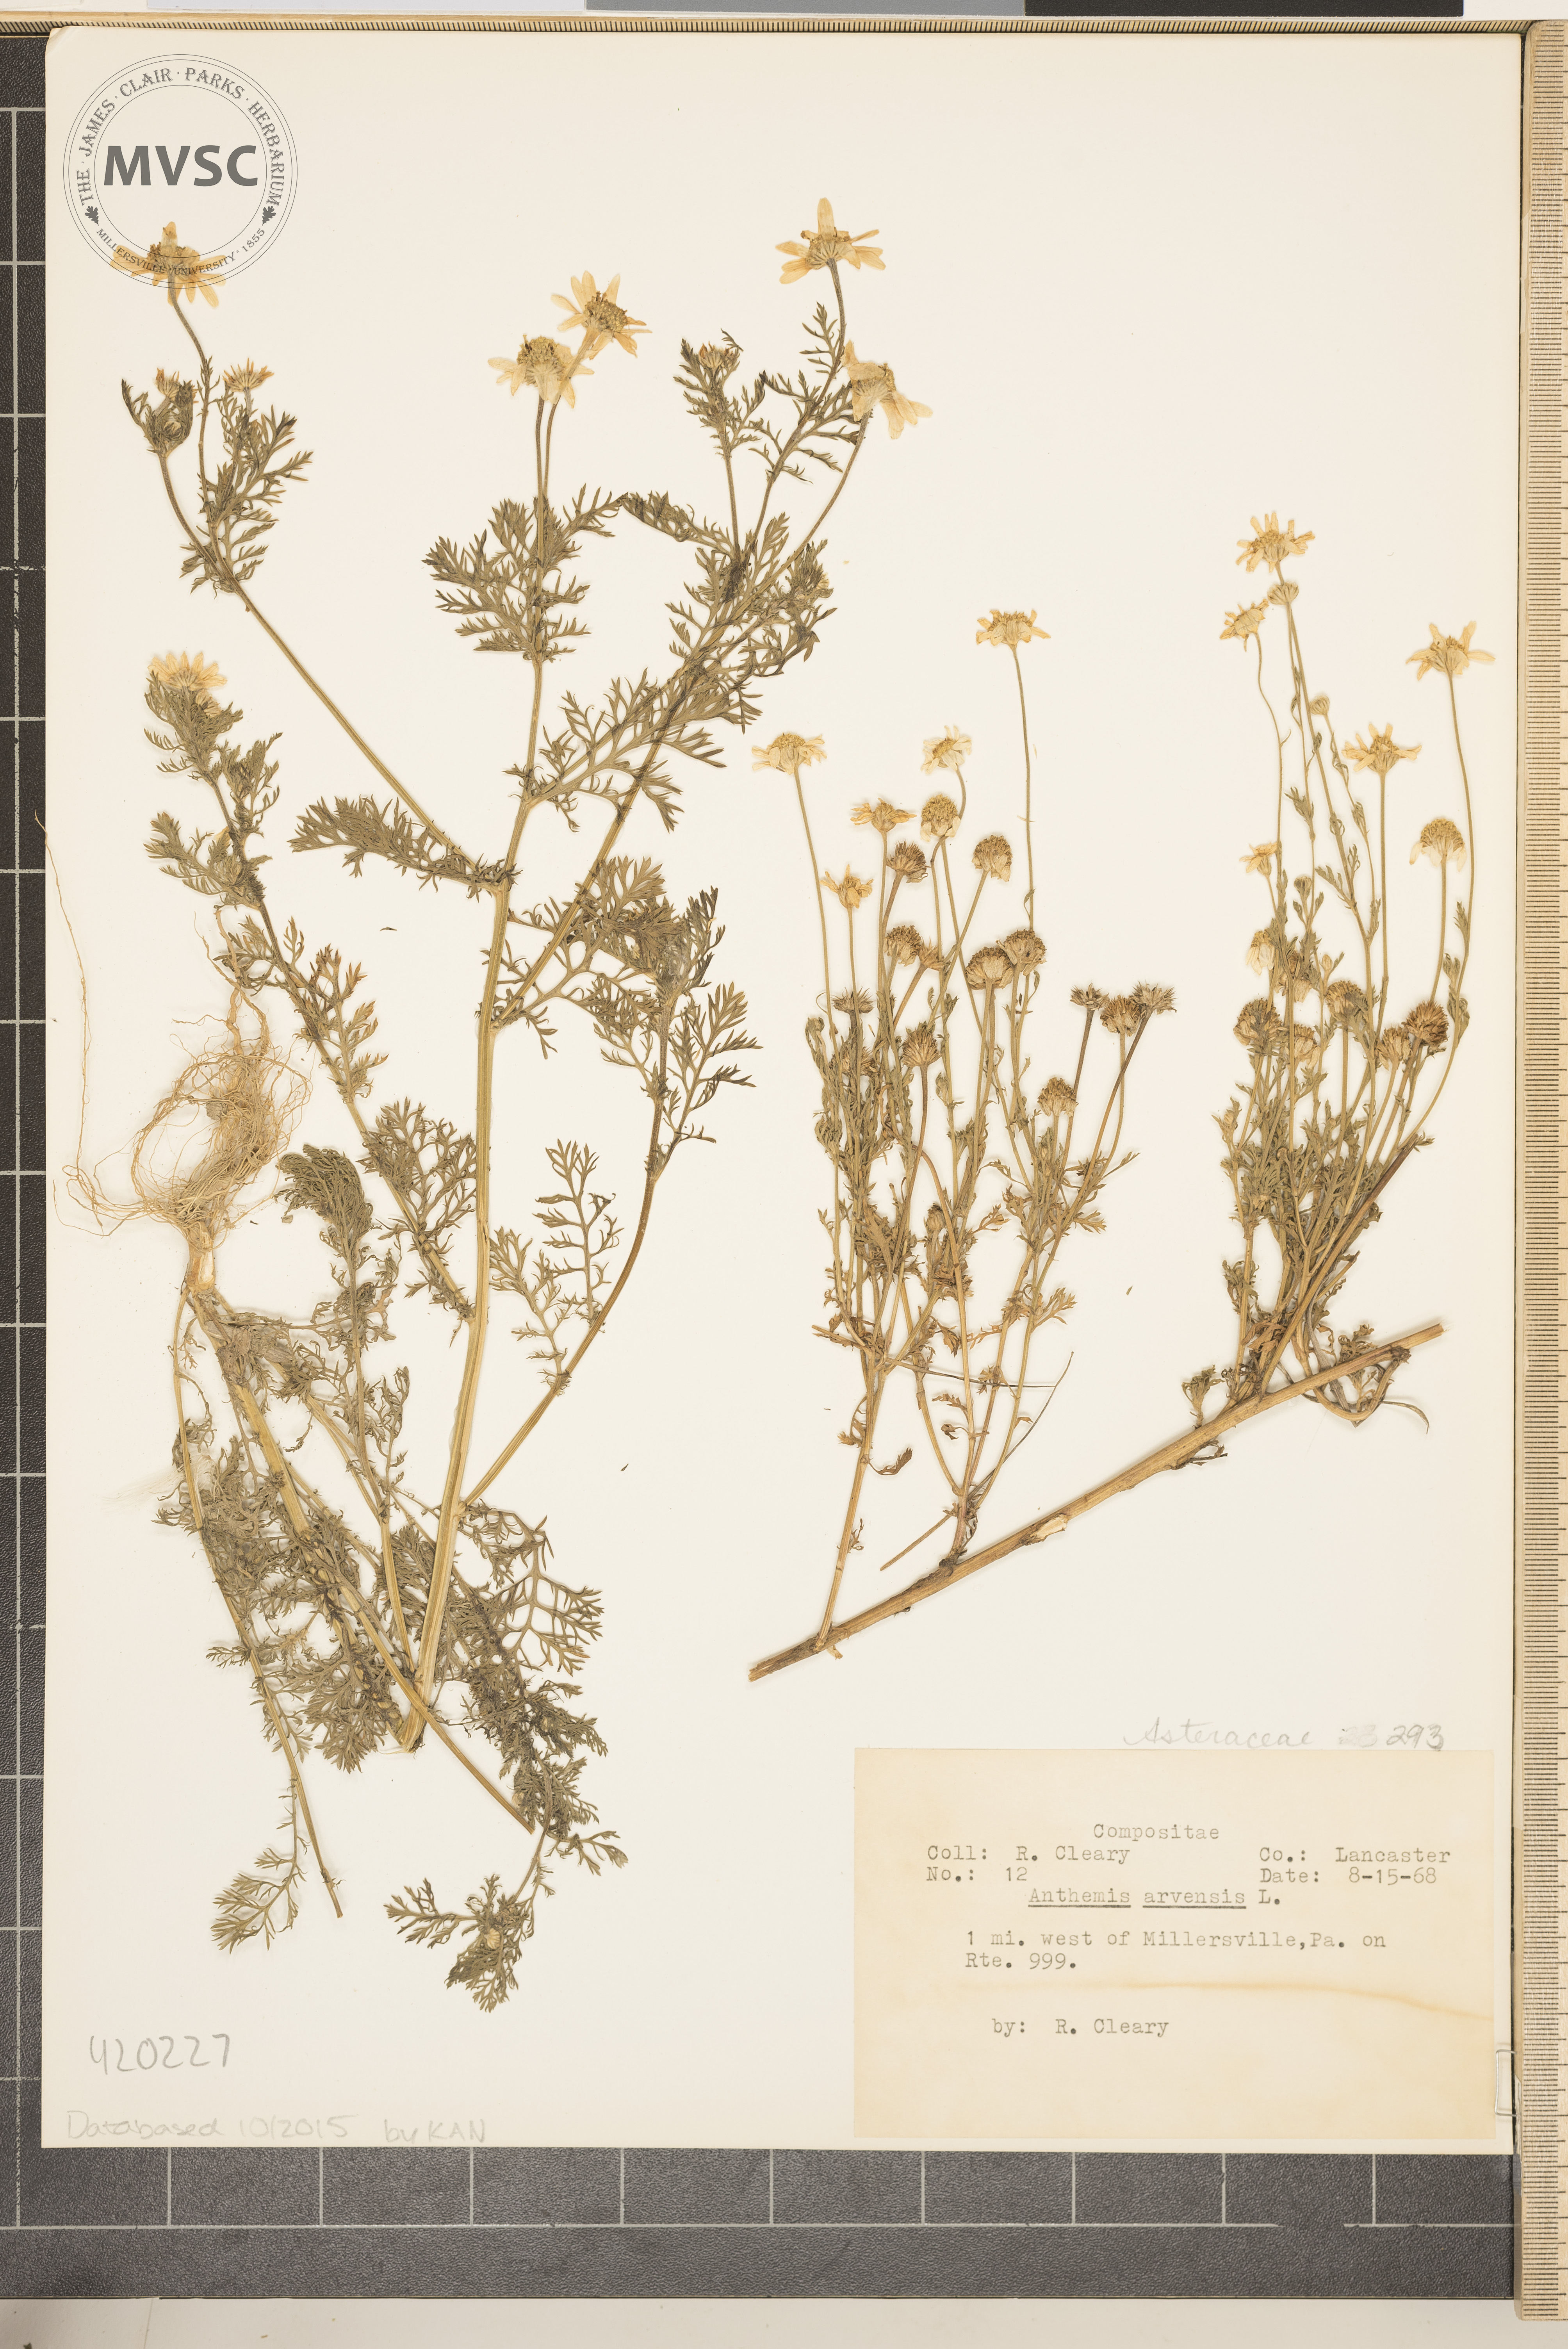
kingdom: Plantae
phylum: Tracheophyta
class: Magnoliopsida
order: Asterales
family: Asteraceae
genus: Anthemis
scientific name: Anthemis arvensis
